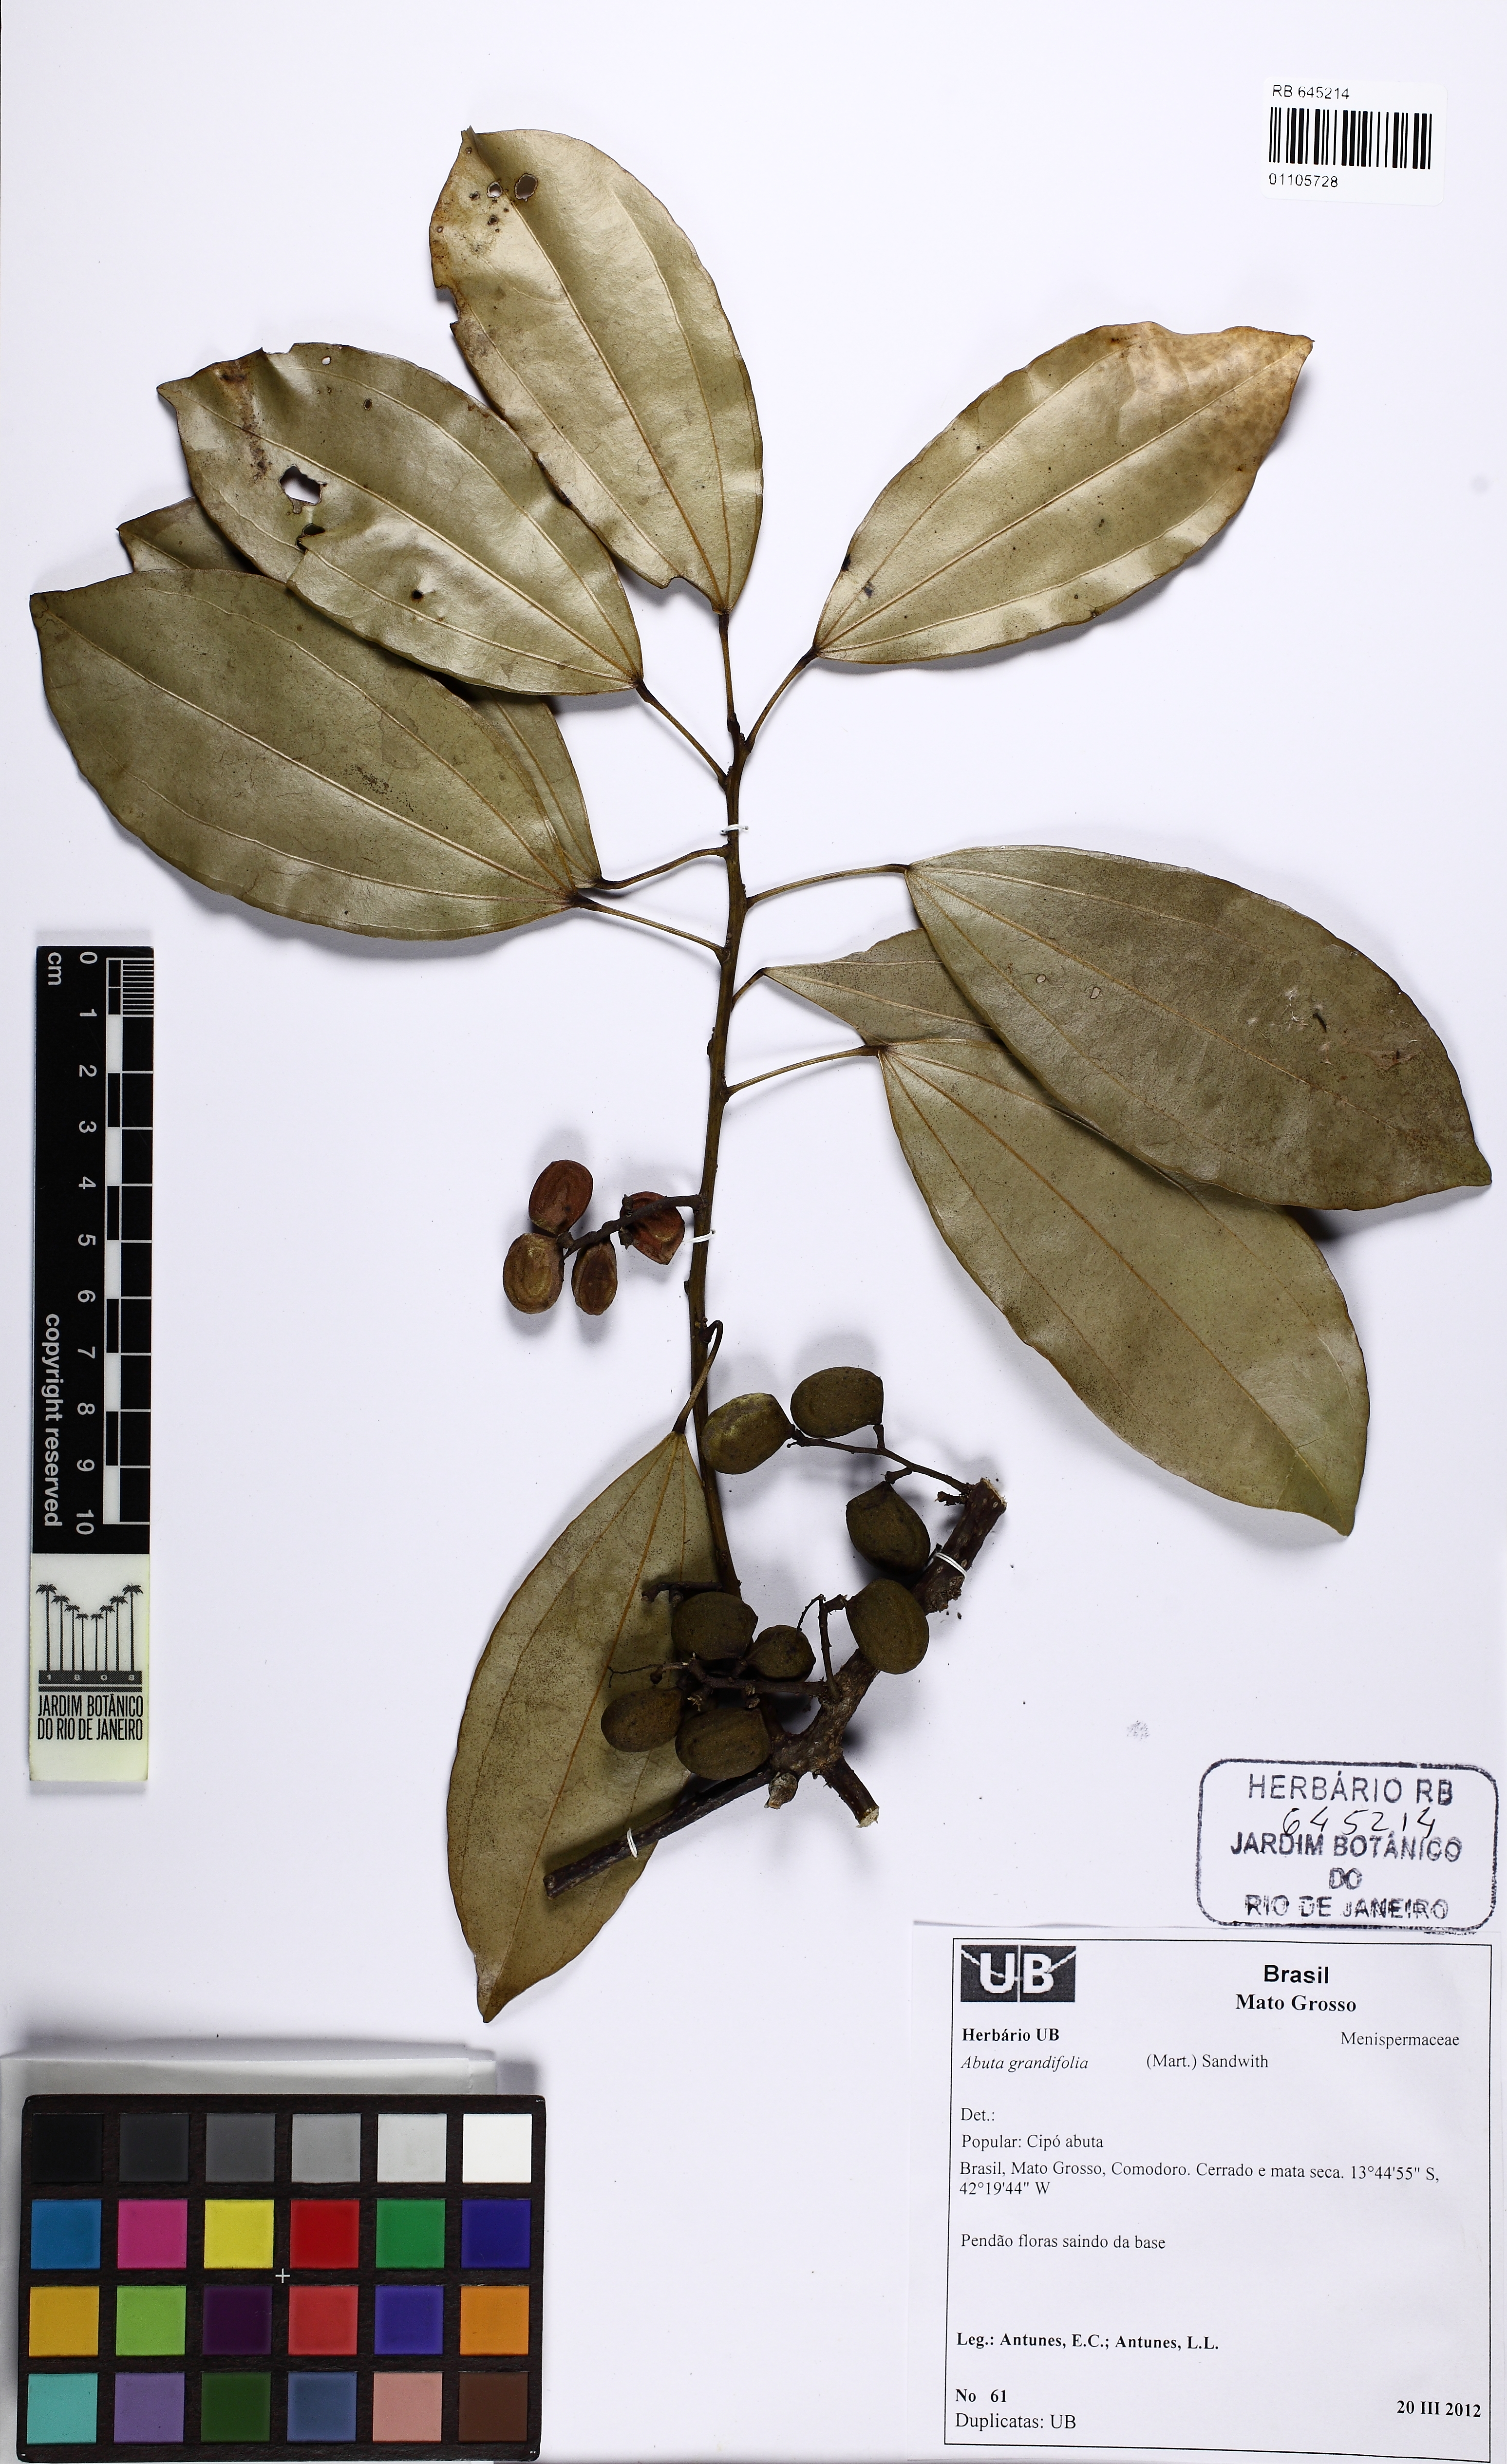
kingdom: Plantae
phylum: Tracheophyta
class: Magnoliopsida
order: Ranunculales
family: Menispermaceae
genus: Abuta
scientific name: Abuta grandifolia
